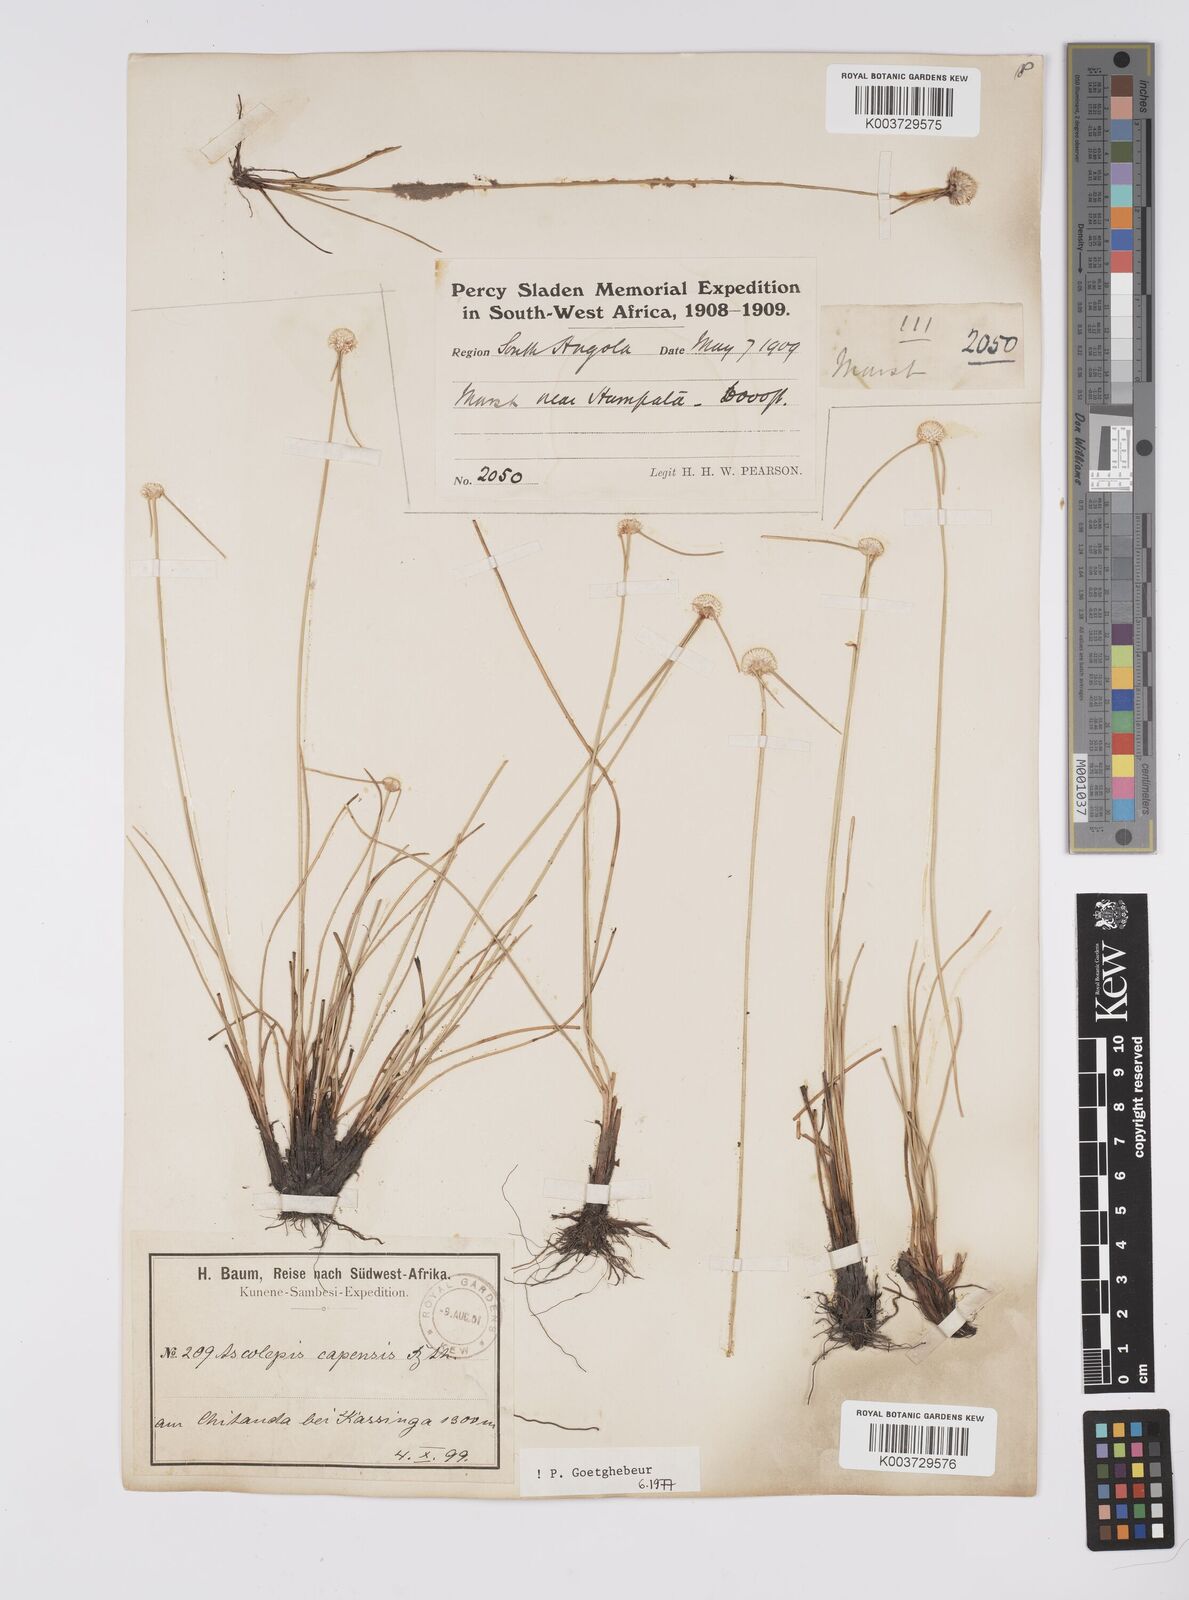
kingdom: Plantae
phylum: Tracheophyta
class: Liliopsida
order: Poales
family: Cyperaceae
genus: Cyperus
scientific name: Cyperus
